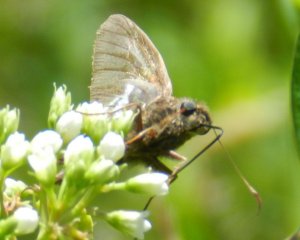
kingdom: Animalia
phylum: Arthropoda
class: Insecta
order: Lepidoptera
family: Hesperiidae
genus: Epargyreus
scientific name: Epargyreus clarus
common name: Silver-spotted Skipper
